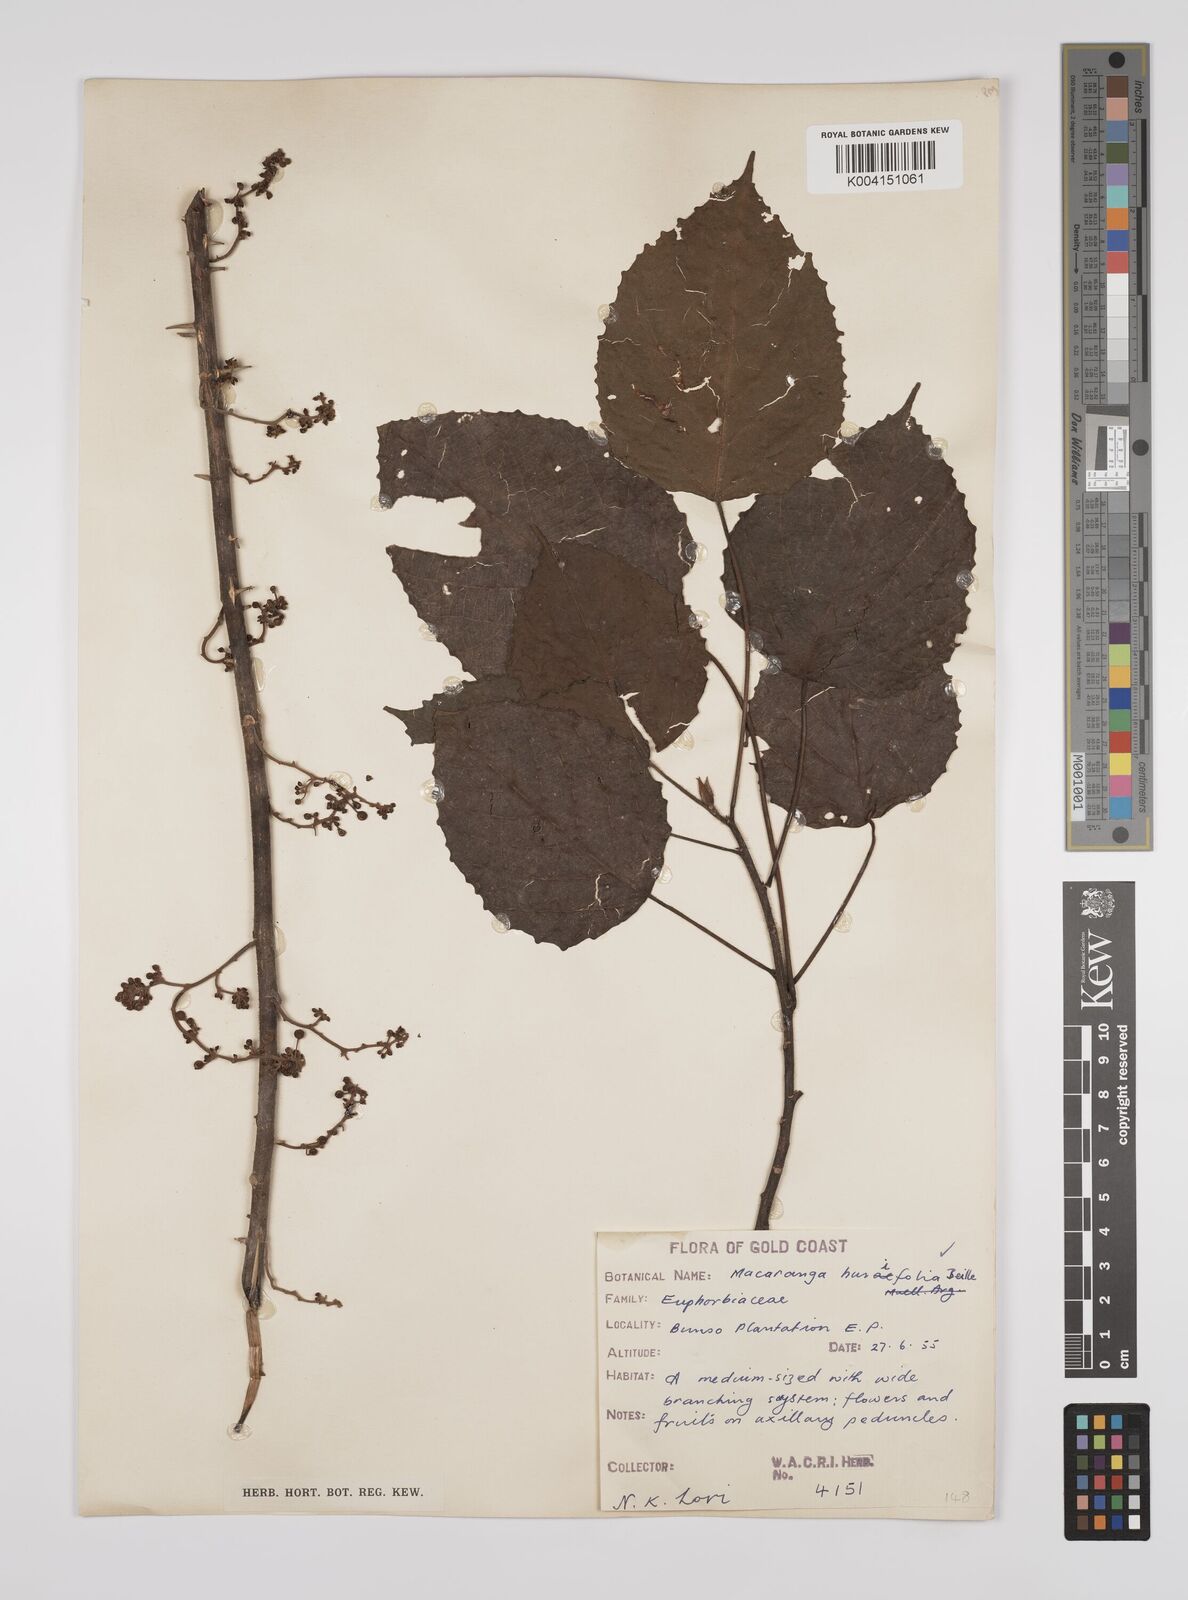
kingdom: Plantae
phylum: Tracheophyta
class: Magnoliopsida
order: Malpighiales
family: Euphorbiaceae
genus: Macaranga
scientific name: Macaranga hurifolia
